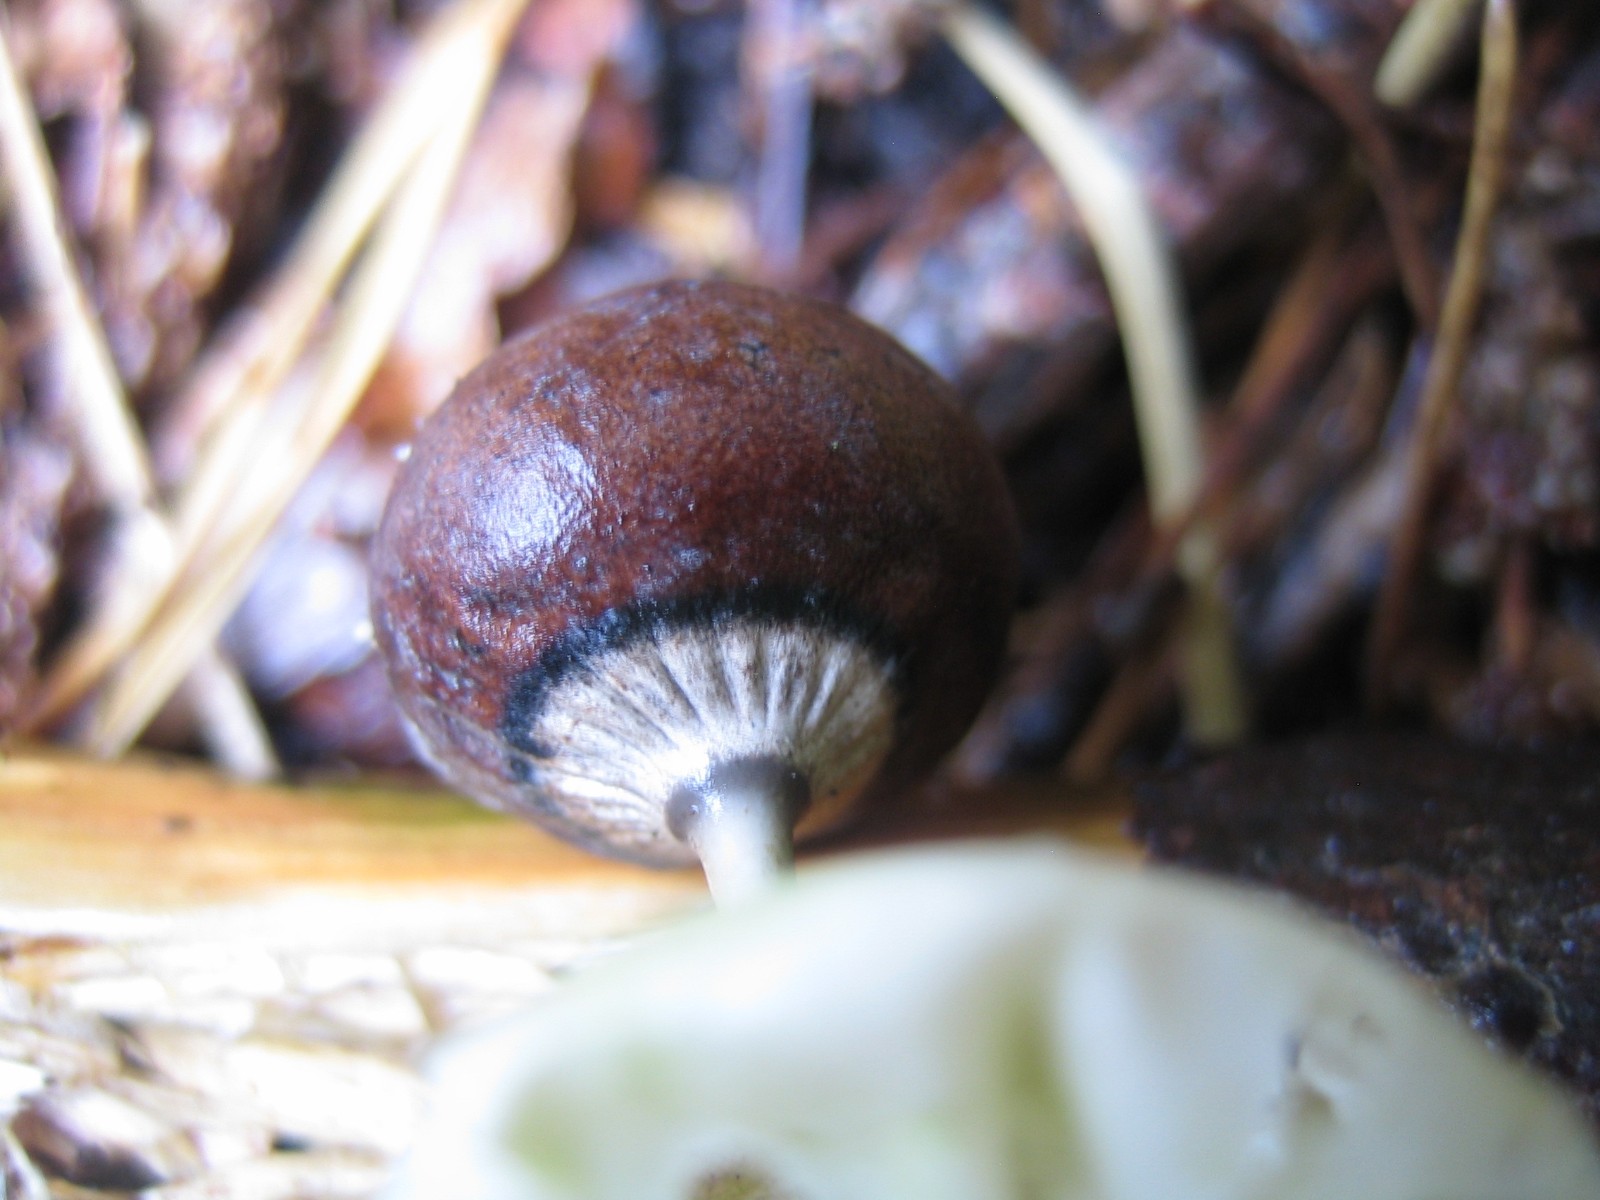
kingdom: Fungi
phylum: Basidiomycota
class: Agaricomycetes
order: Geastrales
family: Geastraceae
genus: Geastrum
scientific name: Geastrum pectinatum
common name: stilket stjernebold
